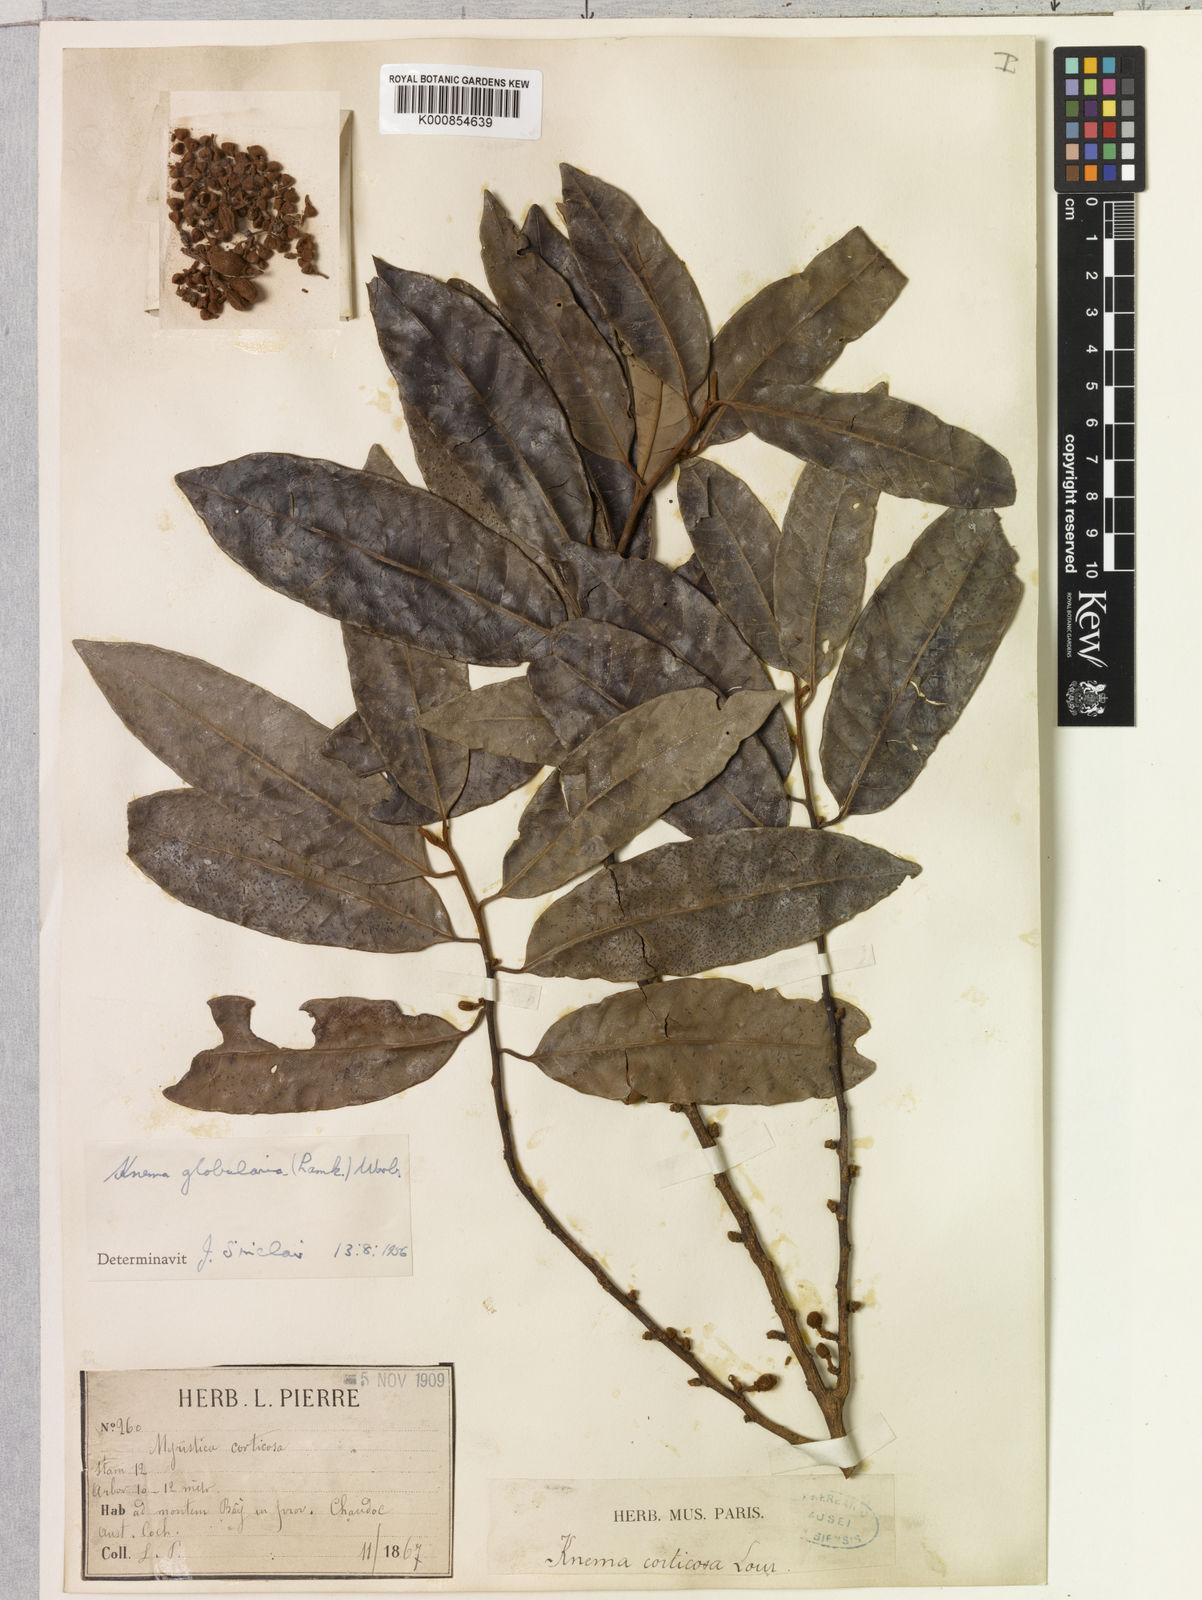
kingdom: Plantae
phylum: Tracheophyta
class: Magnoliopsida
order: Magnoliales
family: Myristicaceae
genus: Knema
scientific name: Knema globularia
